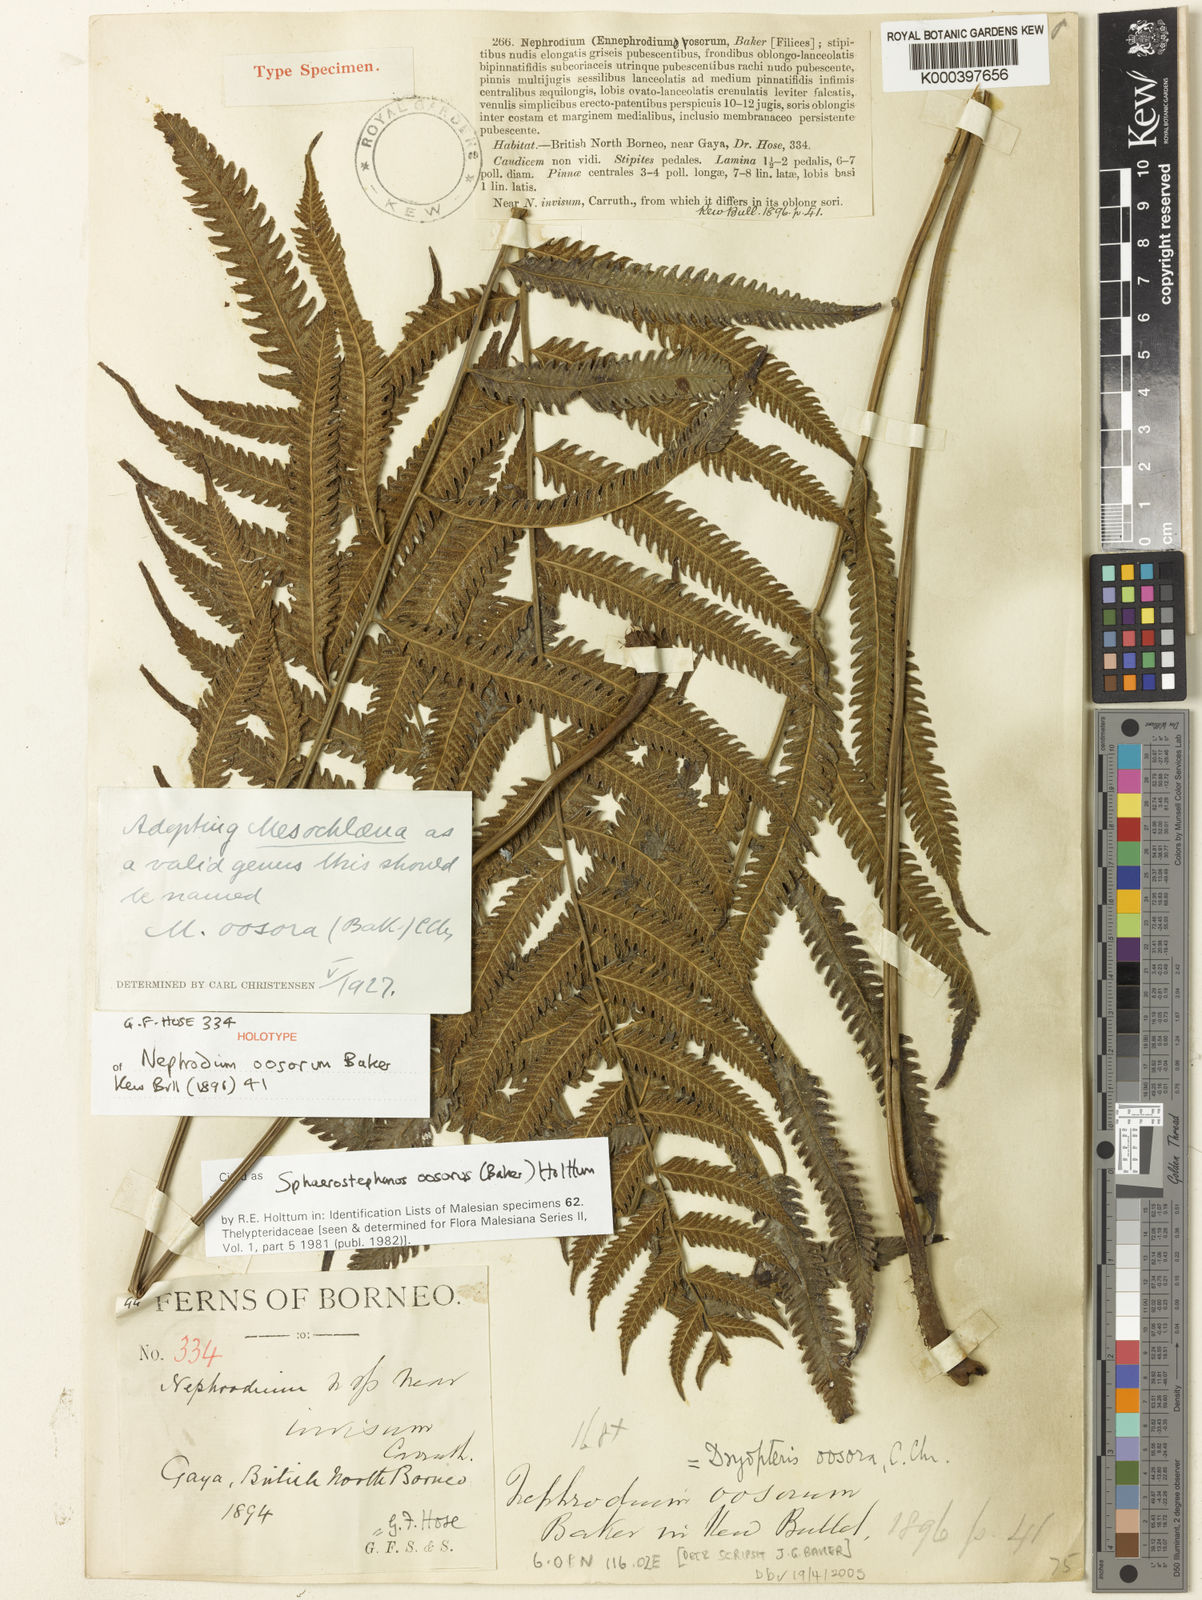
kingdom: Plantae
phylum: Tracheophyta
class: Polypodiopsida
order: Polypodiales
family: Thelypteridaceae
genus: Sphaerostephanos
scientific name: Sphaerostephanos oosorus
